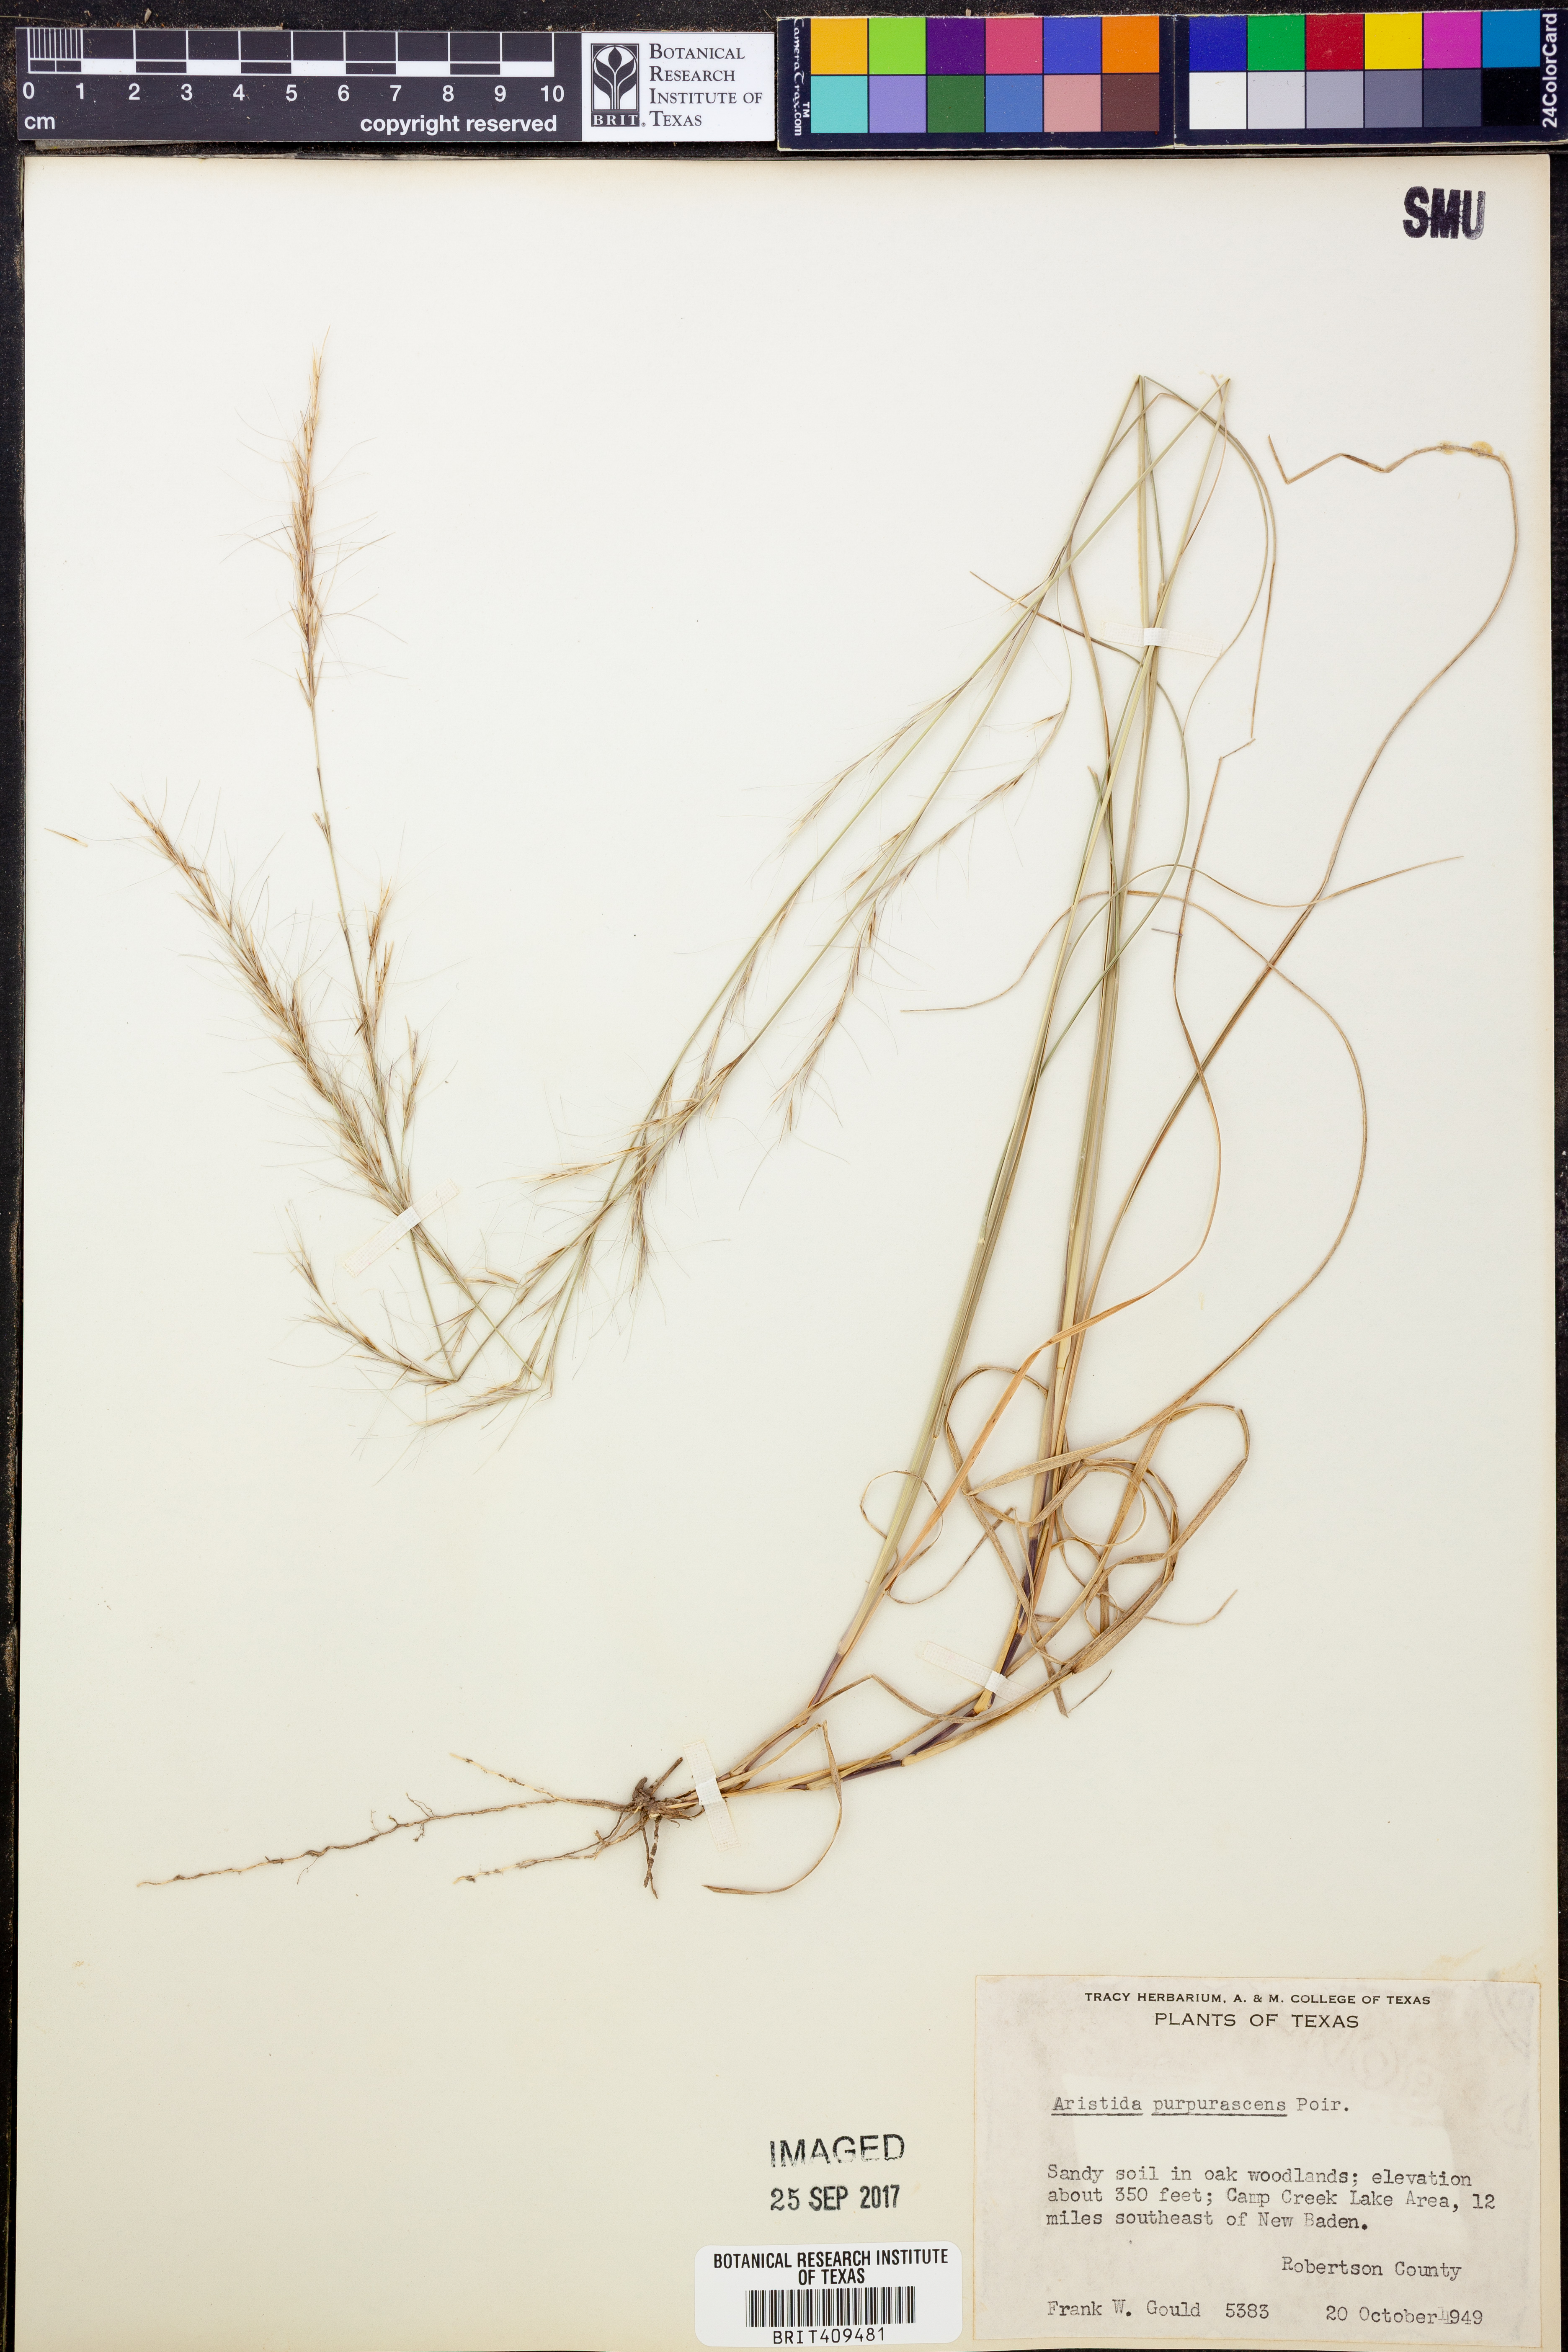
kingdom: Plantae
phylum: Tracheophyta
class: Liliopsida
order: Poales
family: Poaceae
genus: Aristida
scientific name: Aristida purpurascens
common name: Arrow-feather
